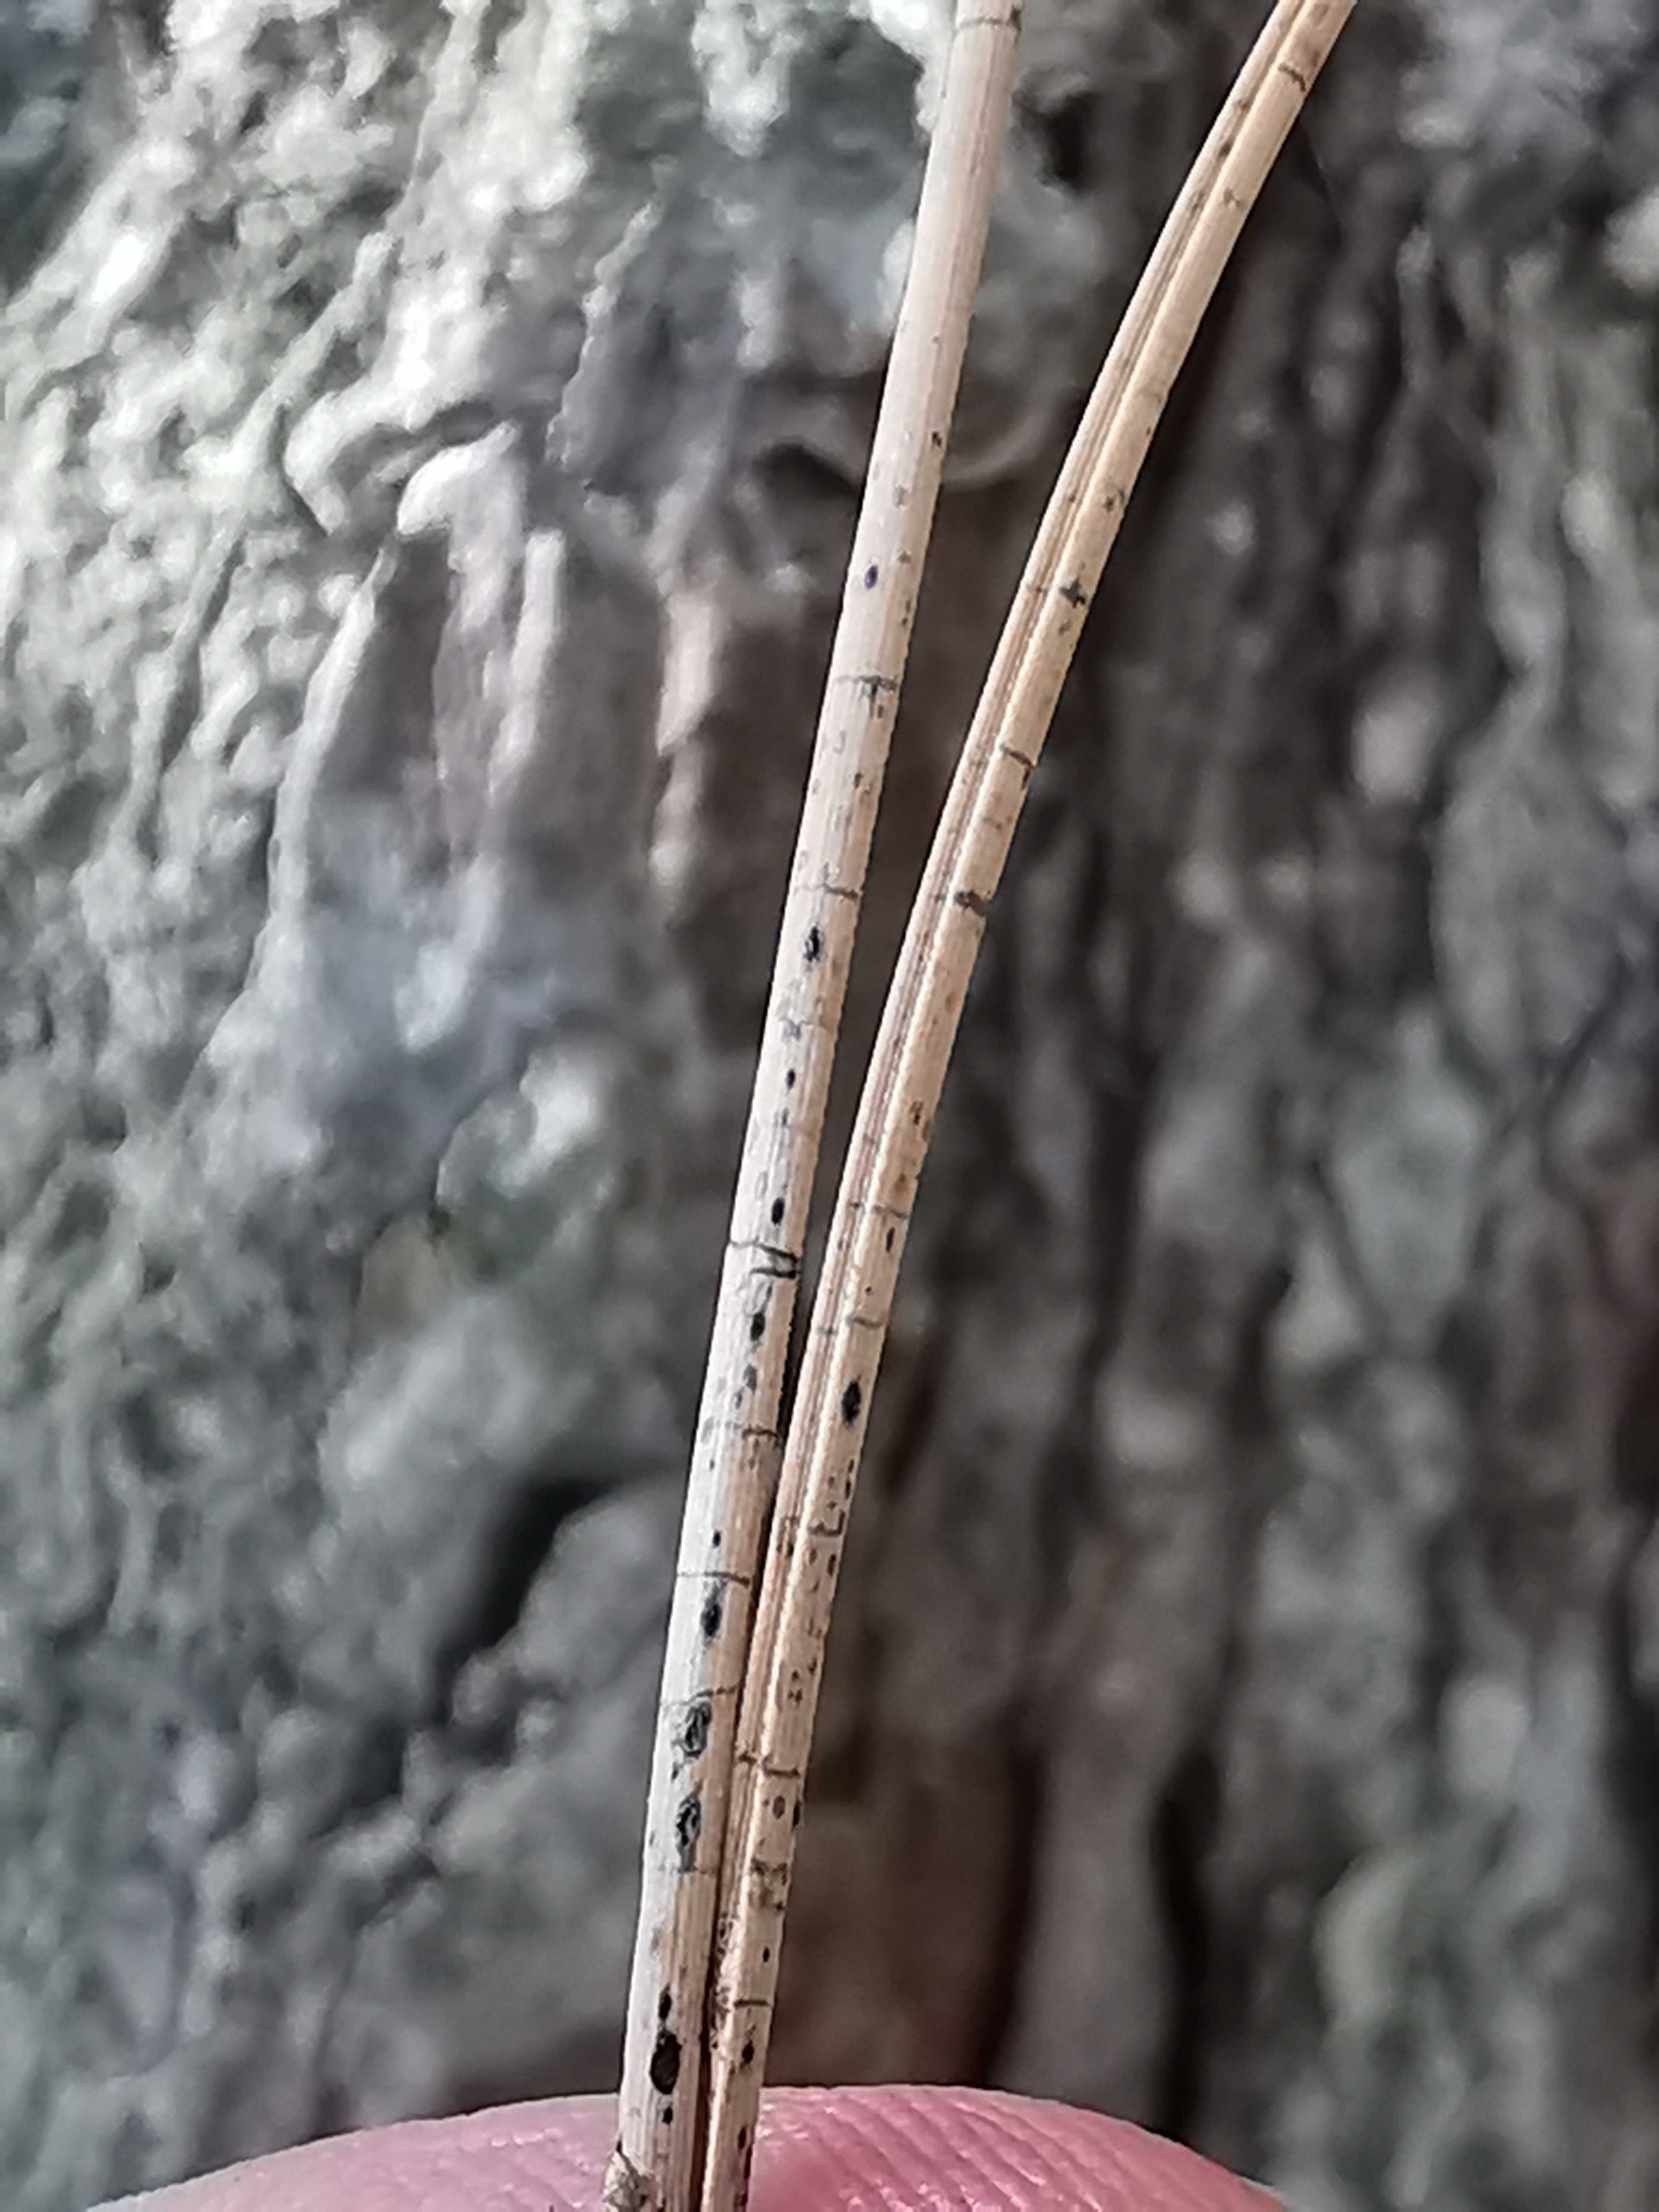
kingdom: Fungi
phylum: Ascomycota
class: Leotiomycetes
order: Rhytismatales
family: Rhytismataceae
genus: Lophodermium
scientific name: Lophodermium pinastri
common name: fyrre-fureplet
